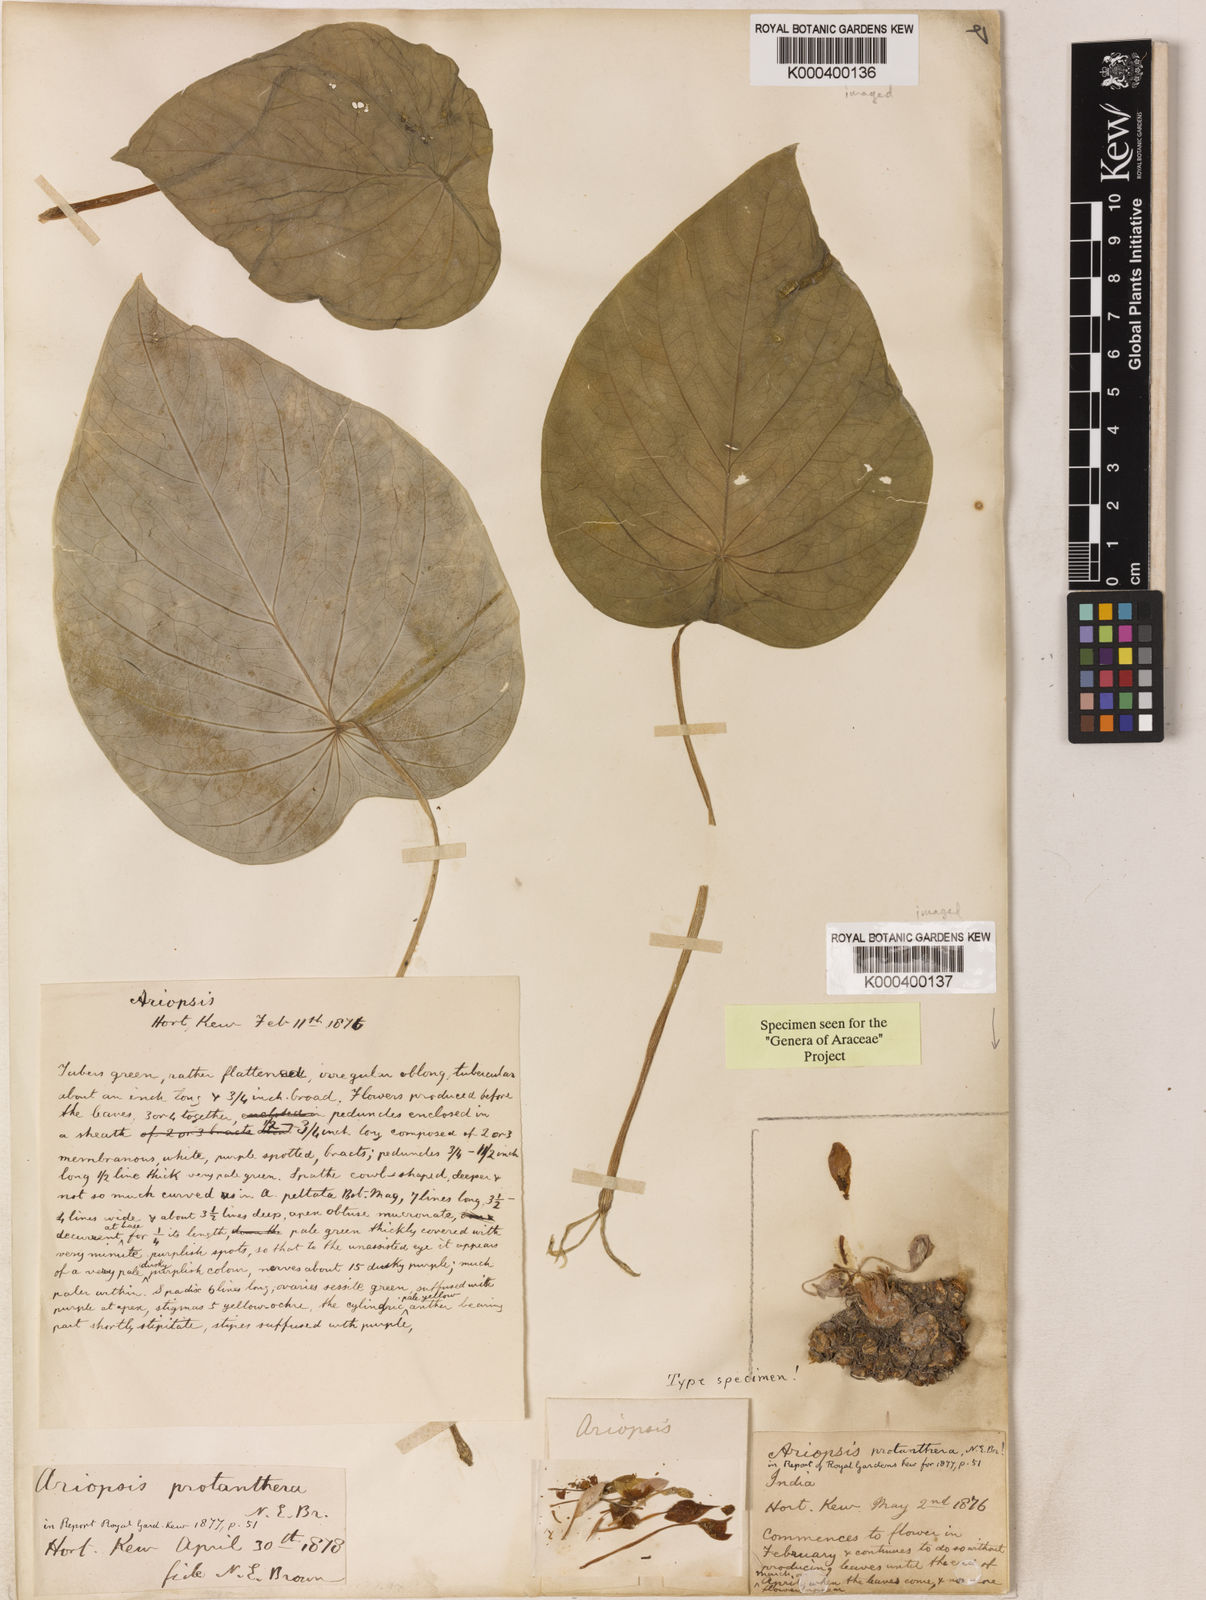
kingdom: Plantae
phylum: Tracheophyta
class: Liliopsida
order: Alismatales
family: Araceae
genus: Ariopsis
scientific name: Ariopsis protanthera
